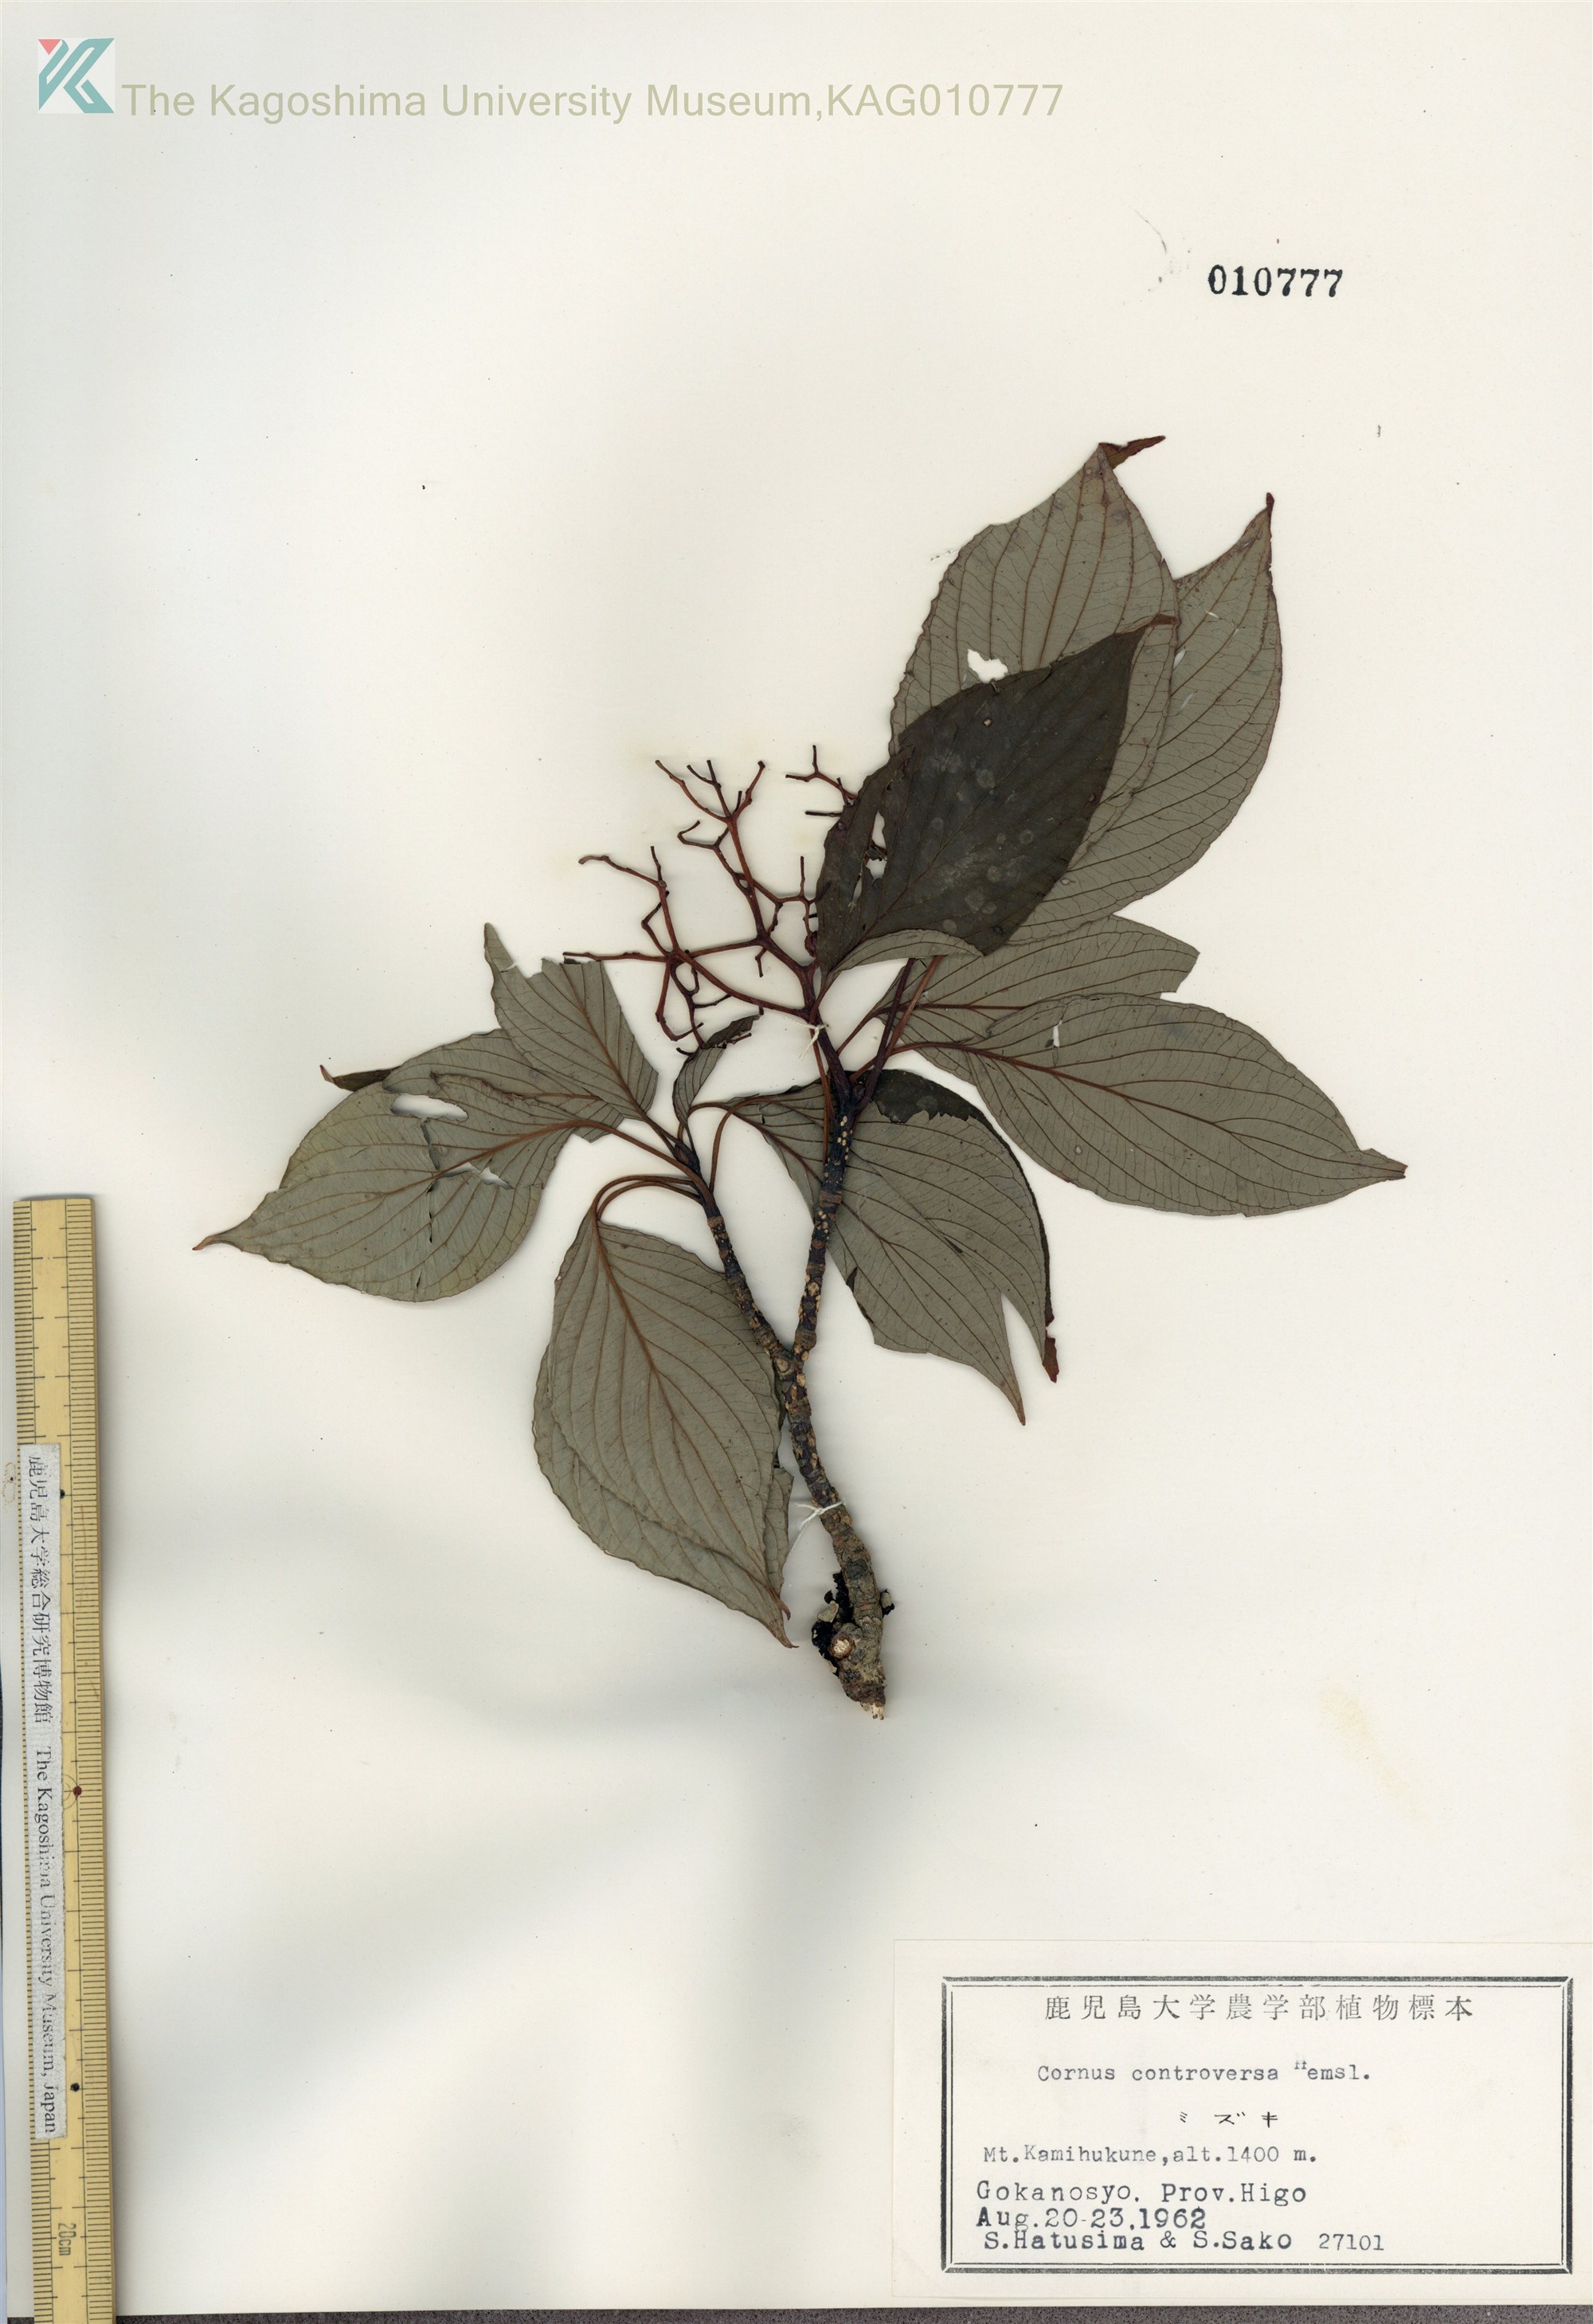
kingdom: Plantae
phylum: Tracheophyta
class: Magnoliopsida
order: Cornales
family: Cornaceae
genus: Cornus
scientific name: Cornus controversa
